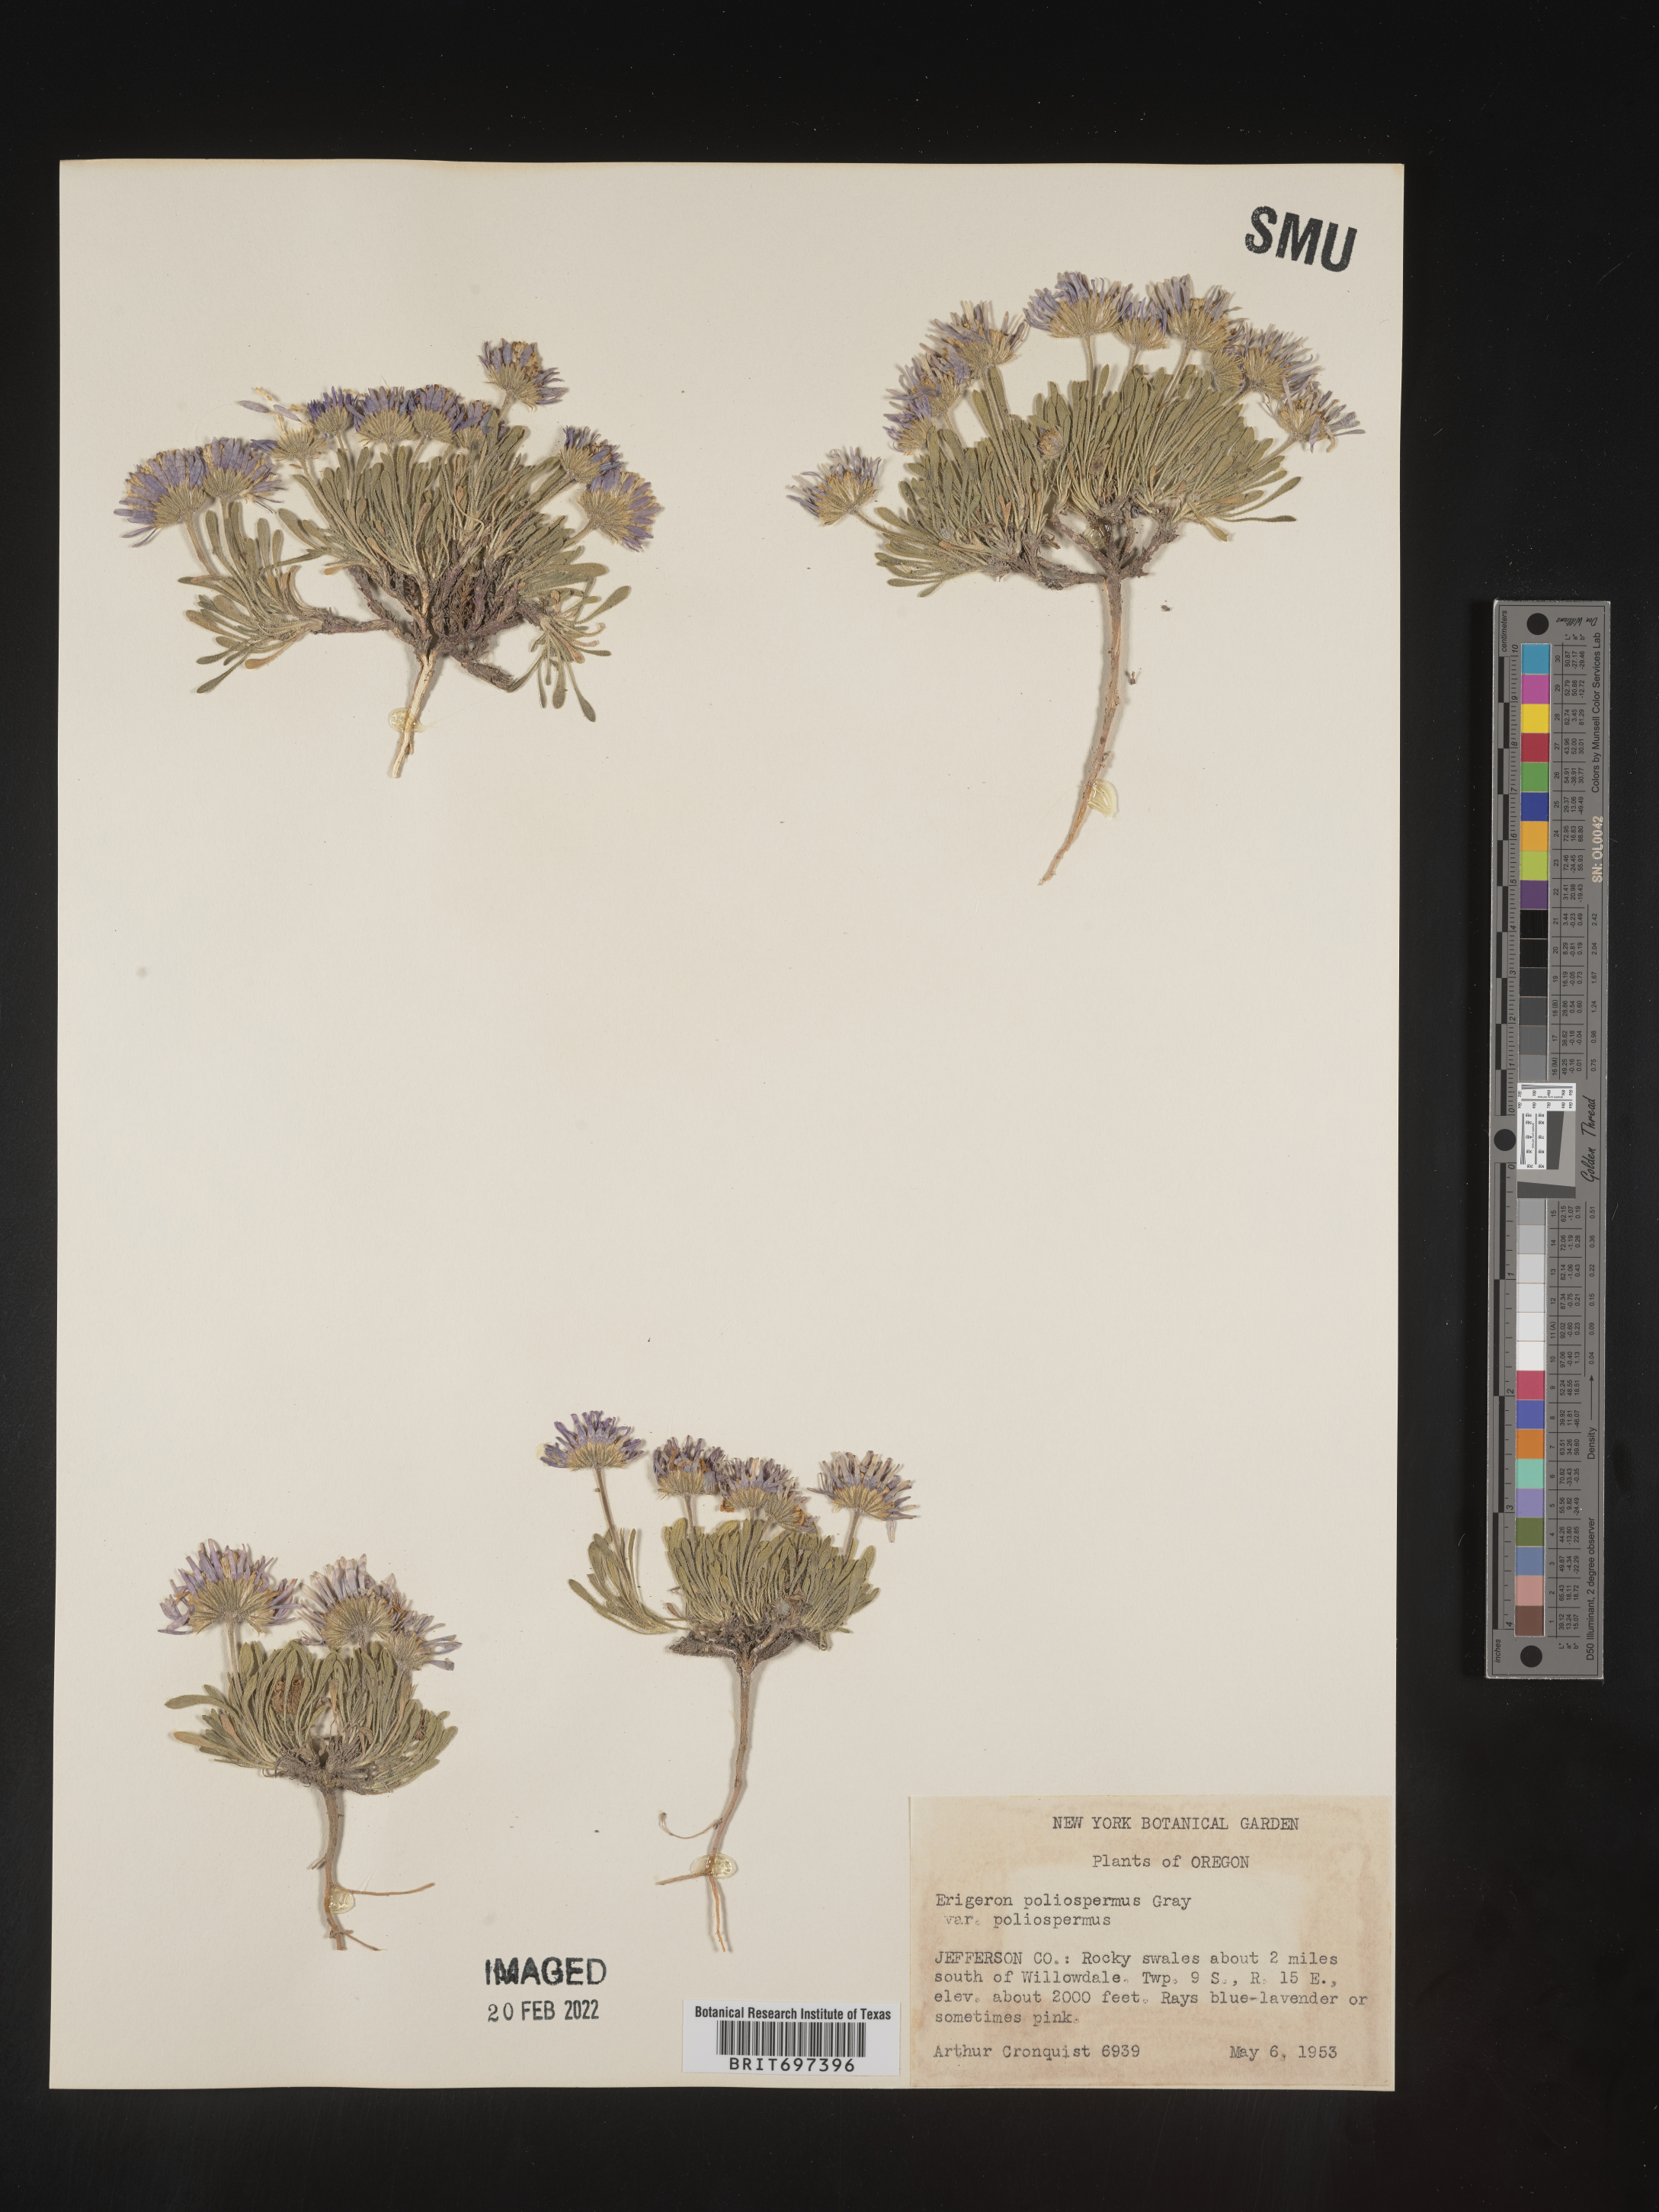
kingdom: Plantae
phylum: Tracheophyta
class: Magnoliopsida
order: Asterales
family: Asteraceae
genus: Erigeron
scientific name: Erigeron poliospermus
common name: Cushion fleabane
